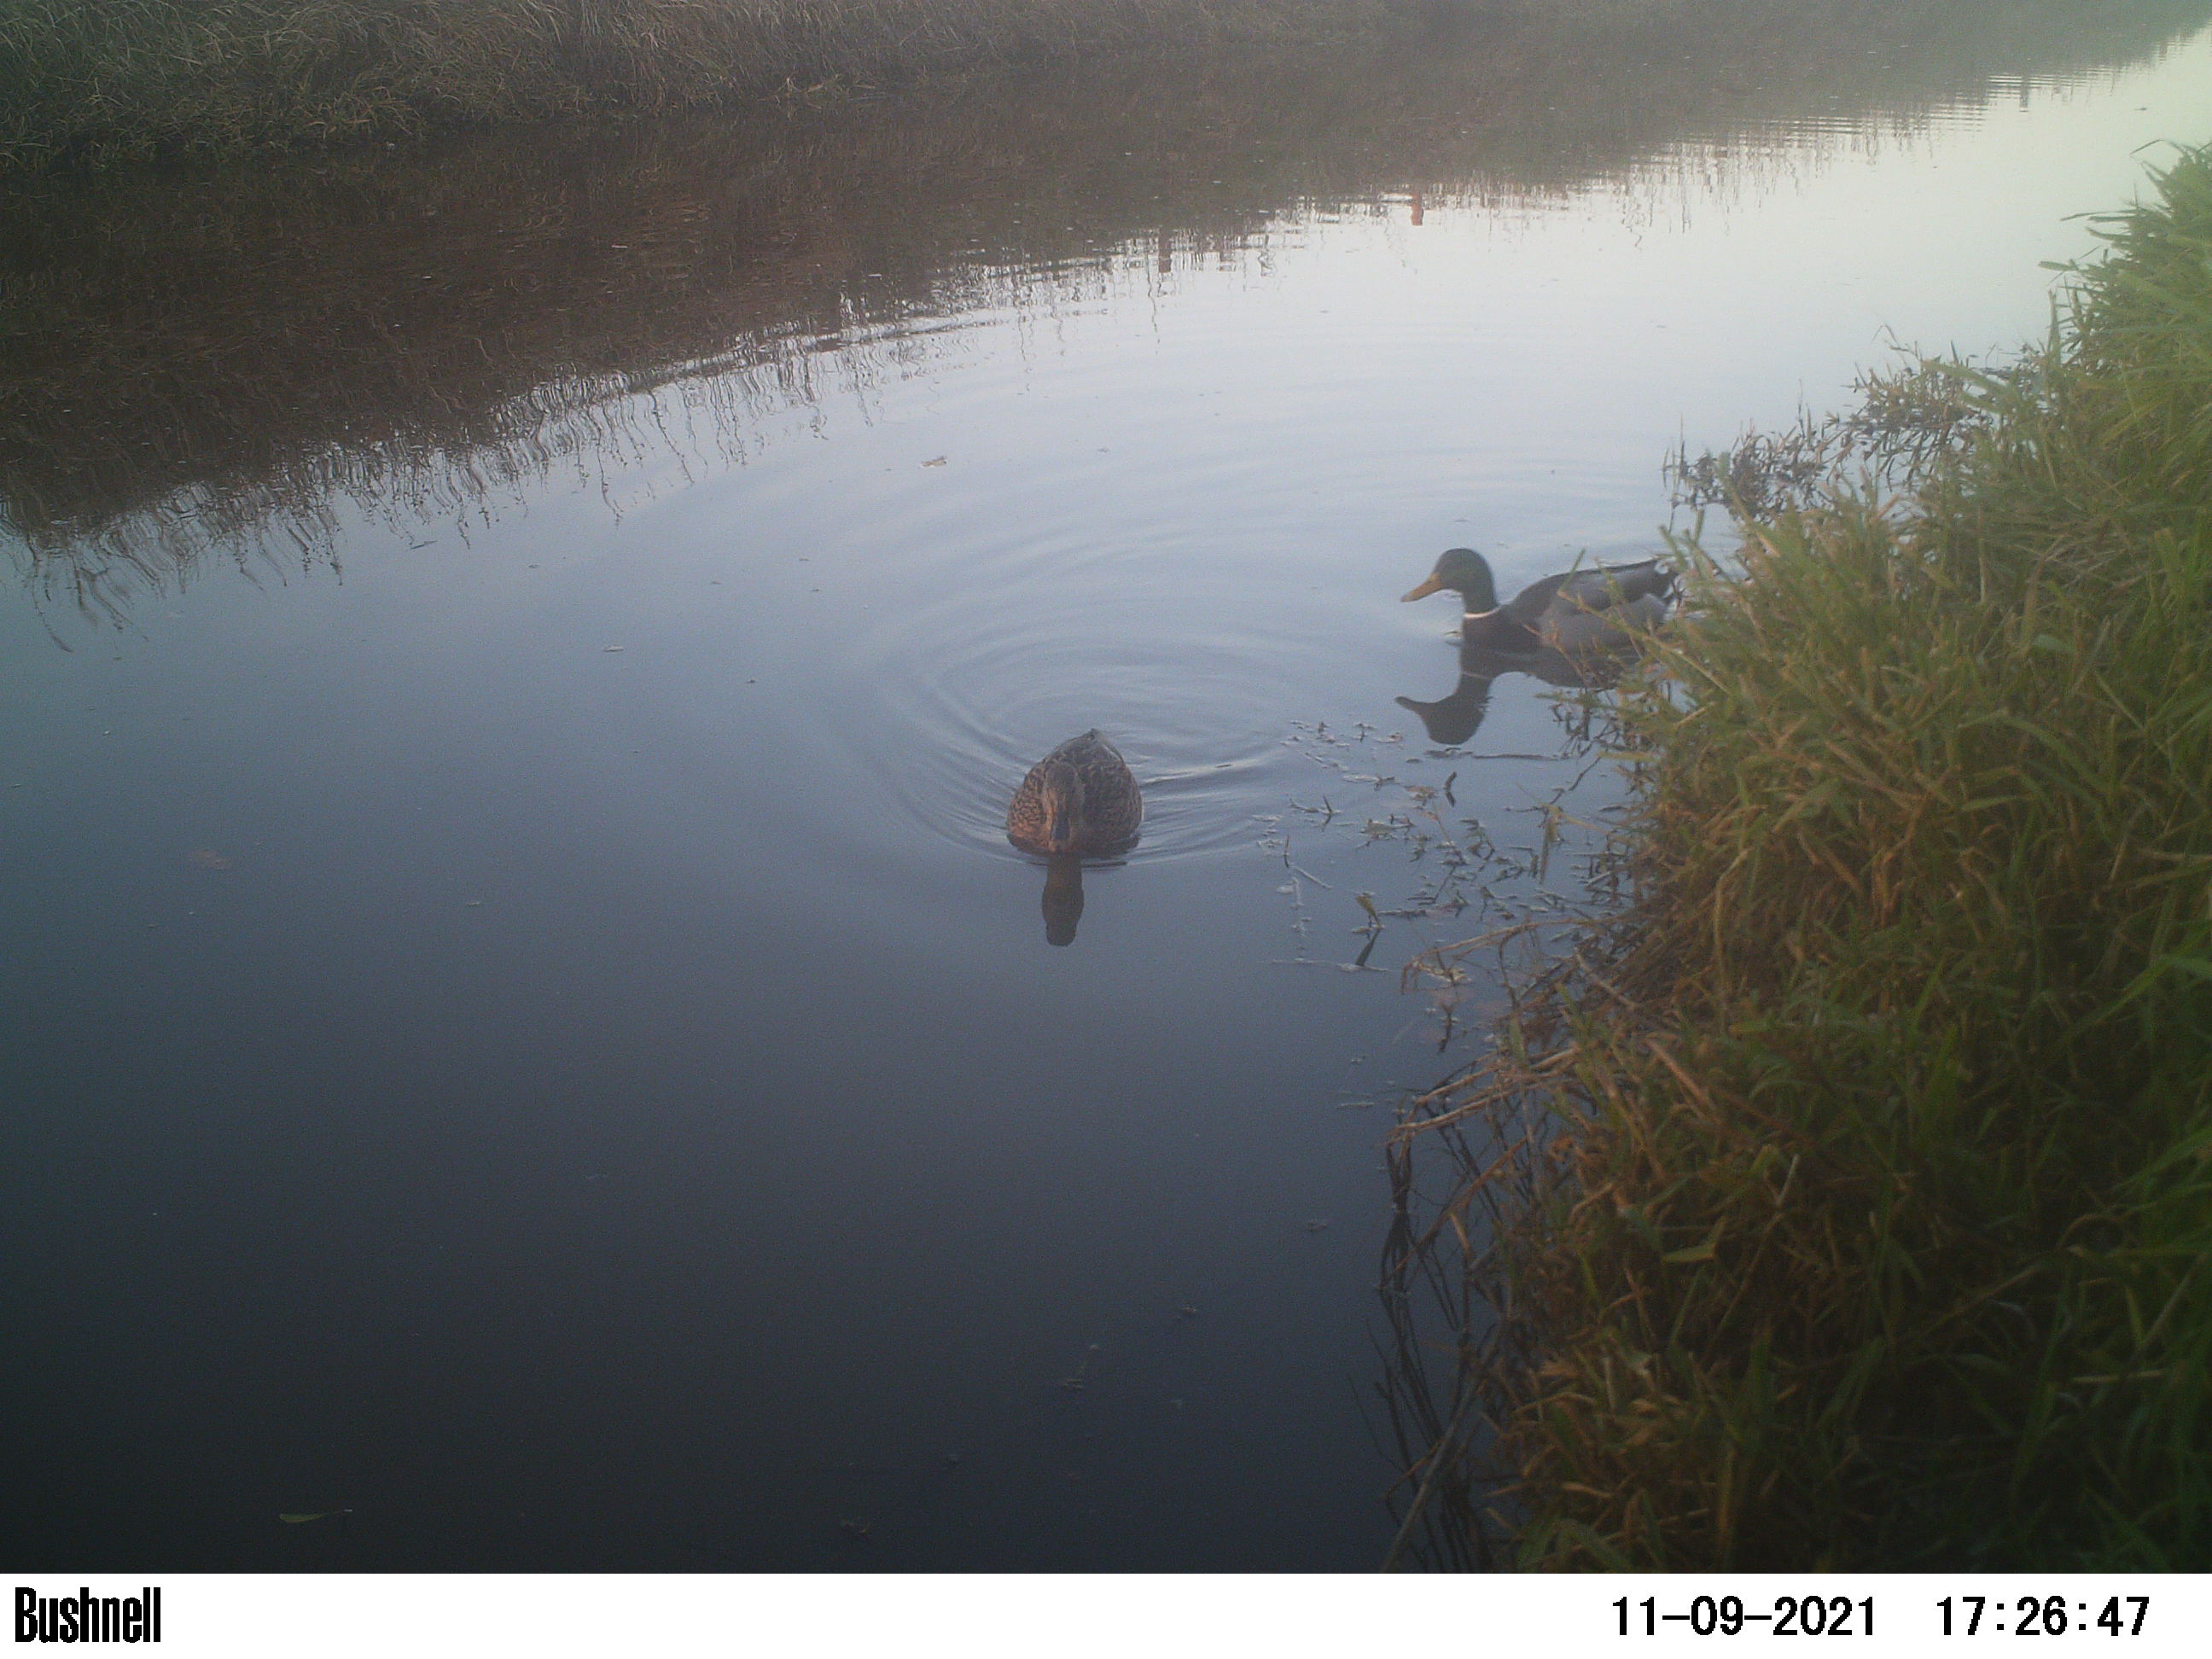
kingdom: Animalia
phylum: Chordata
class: Aves
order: Anseriformes
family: Anatidae
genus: Anas
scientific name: Anas
